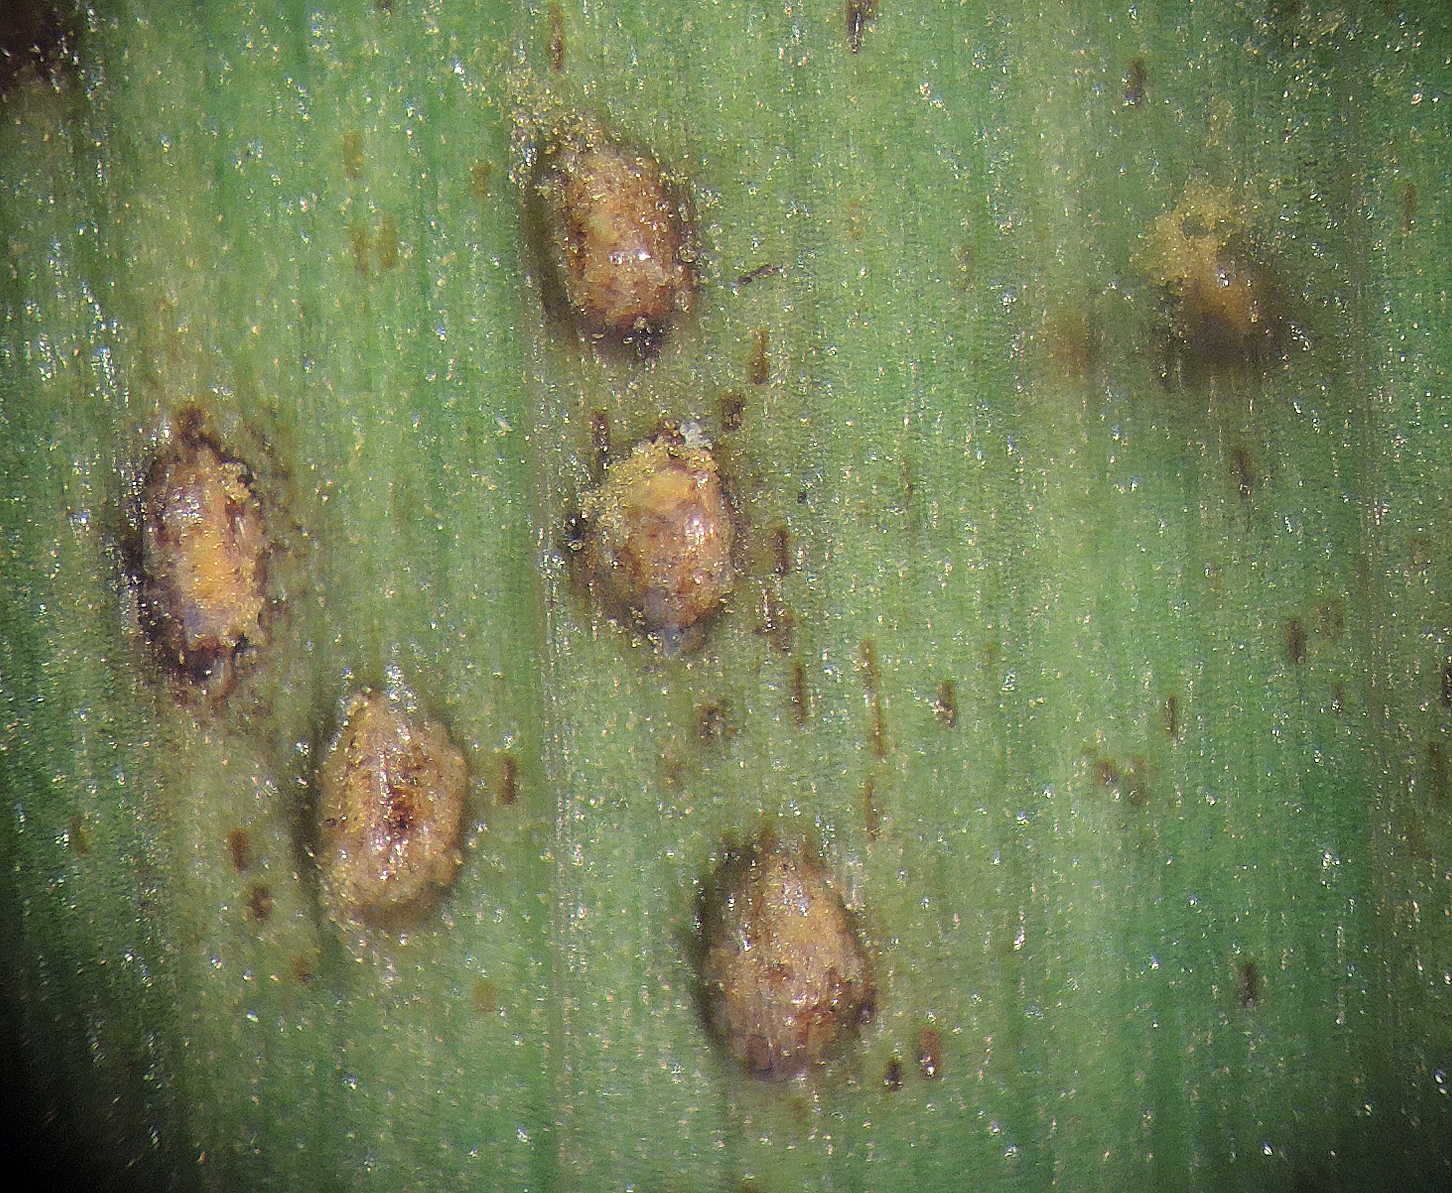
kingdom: Fungi
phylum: Basidiomycota
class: Pucciniomycetes
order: Pucciniales
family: Pucciniaceae
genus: Puccinia
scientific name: Puccinia luzulae
